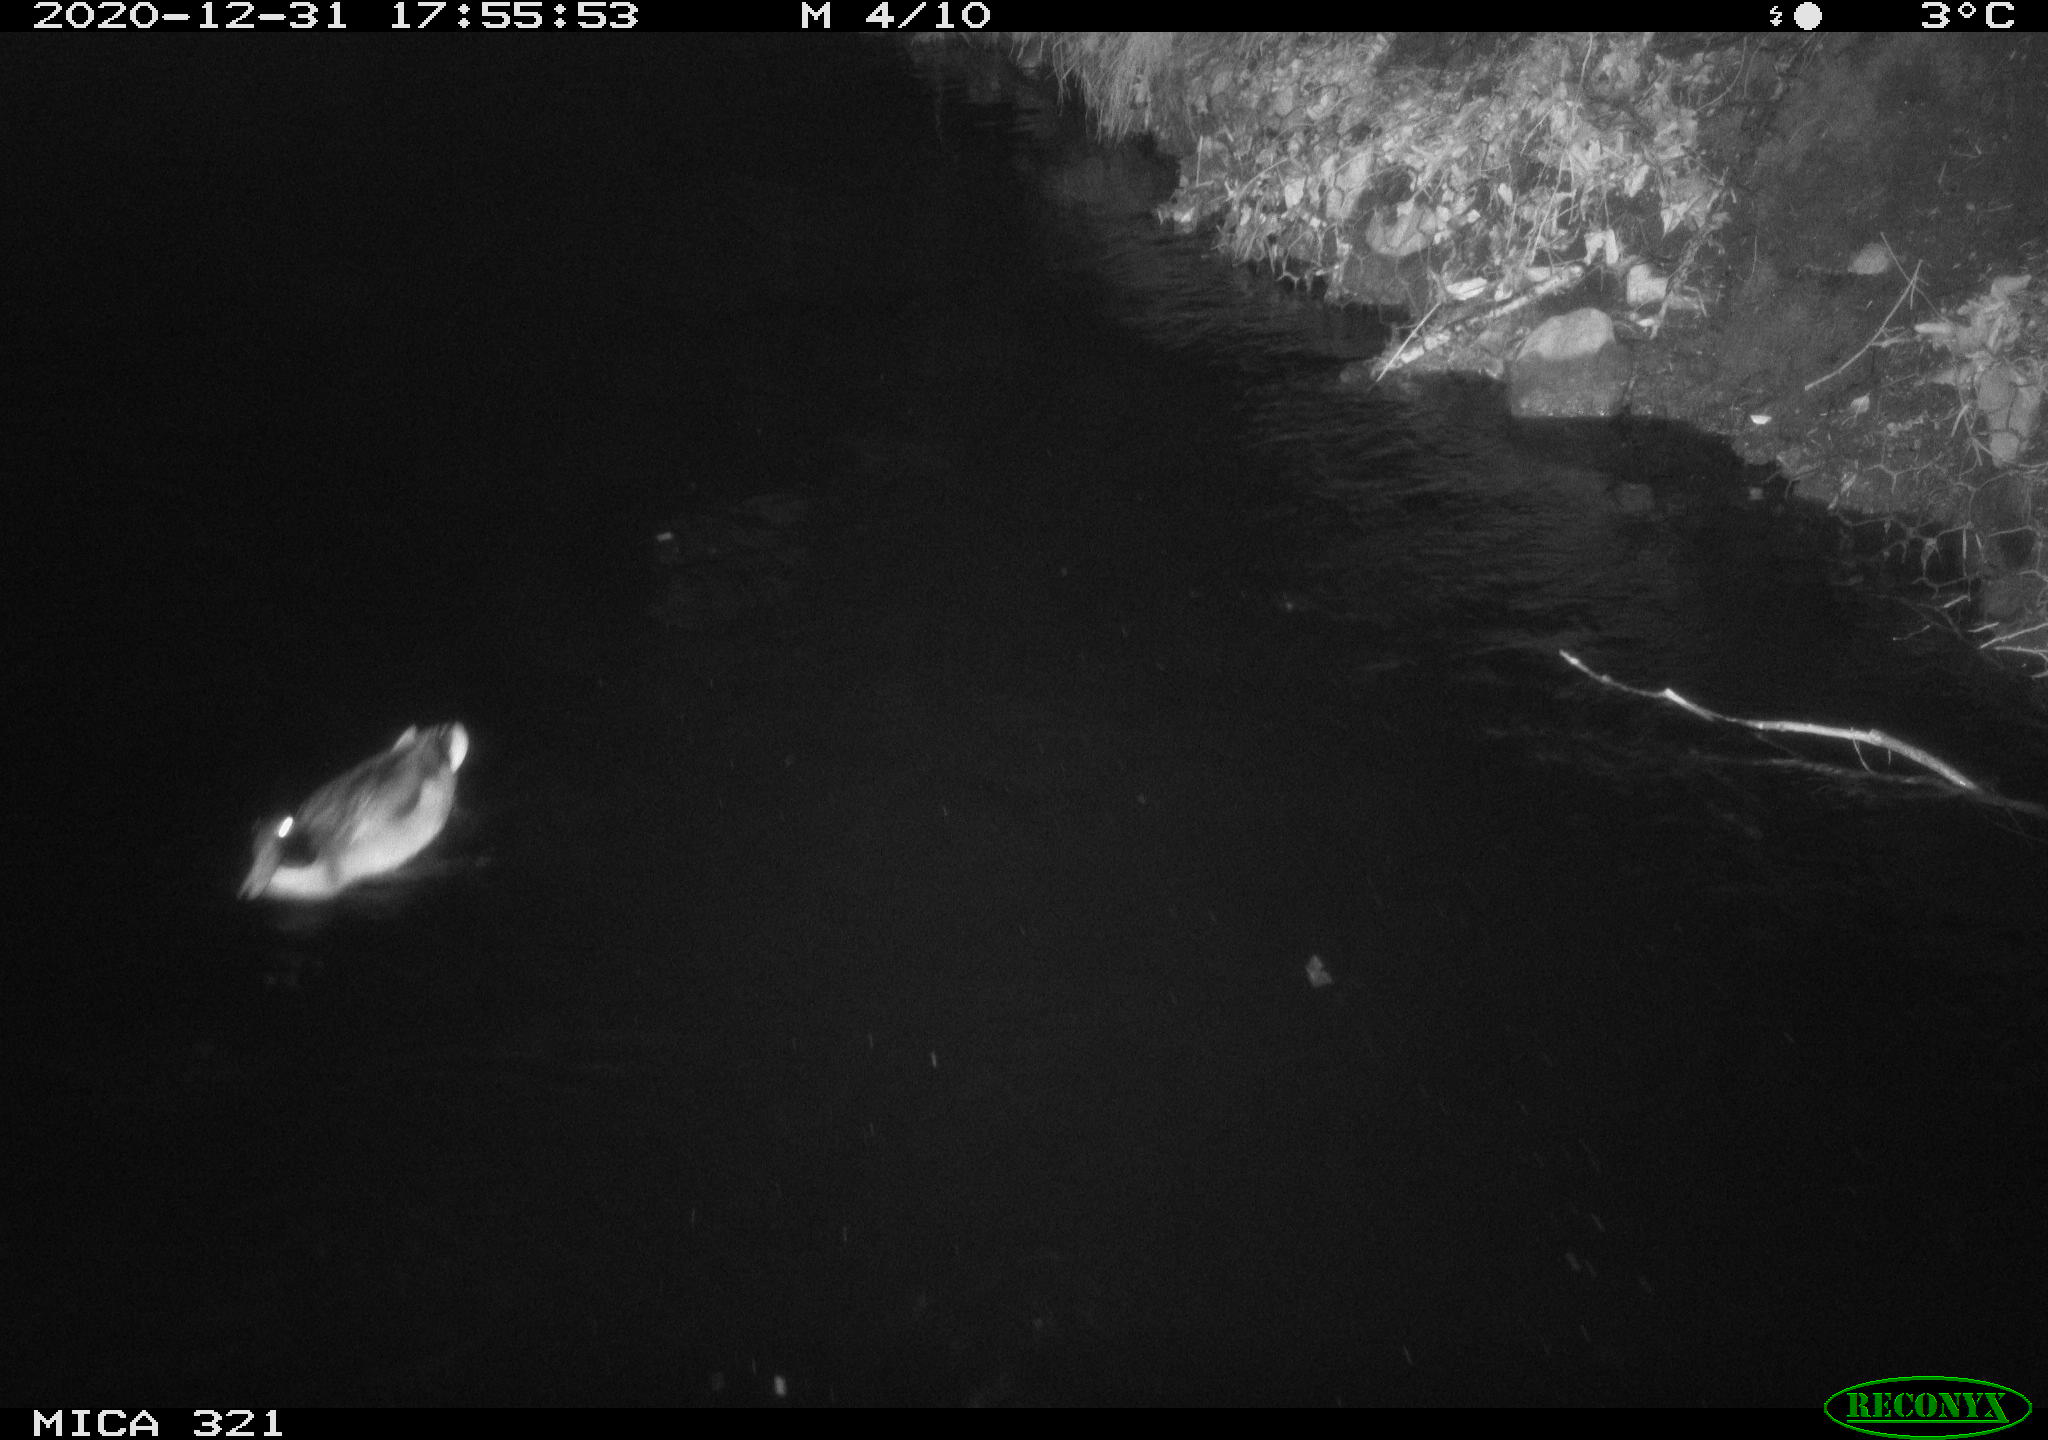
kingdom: Animalia
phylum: Chordata
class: Aves
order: Anseriformes
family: Anatidae
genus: Anas
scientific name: Anas platyrhynchos
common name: Mallard
